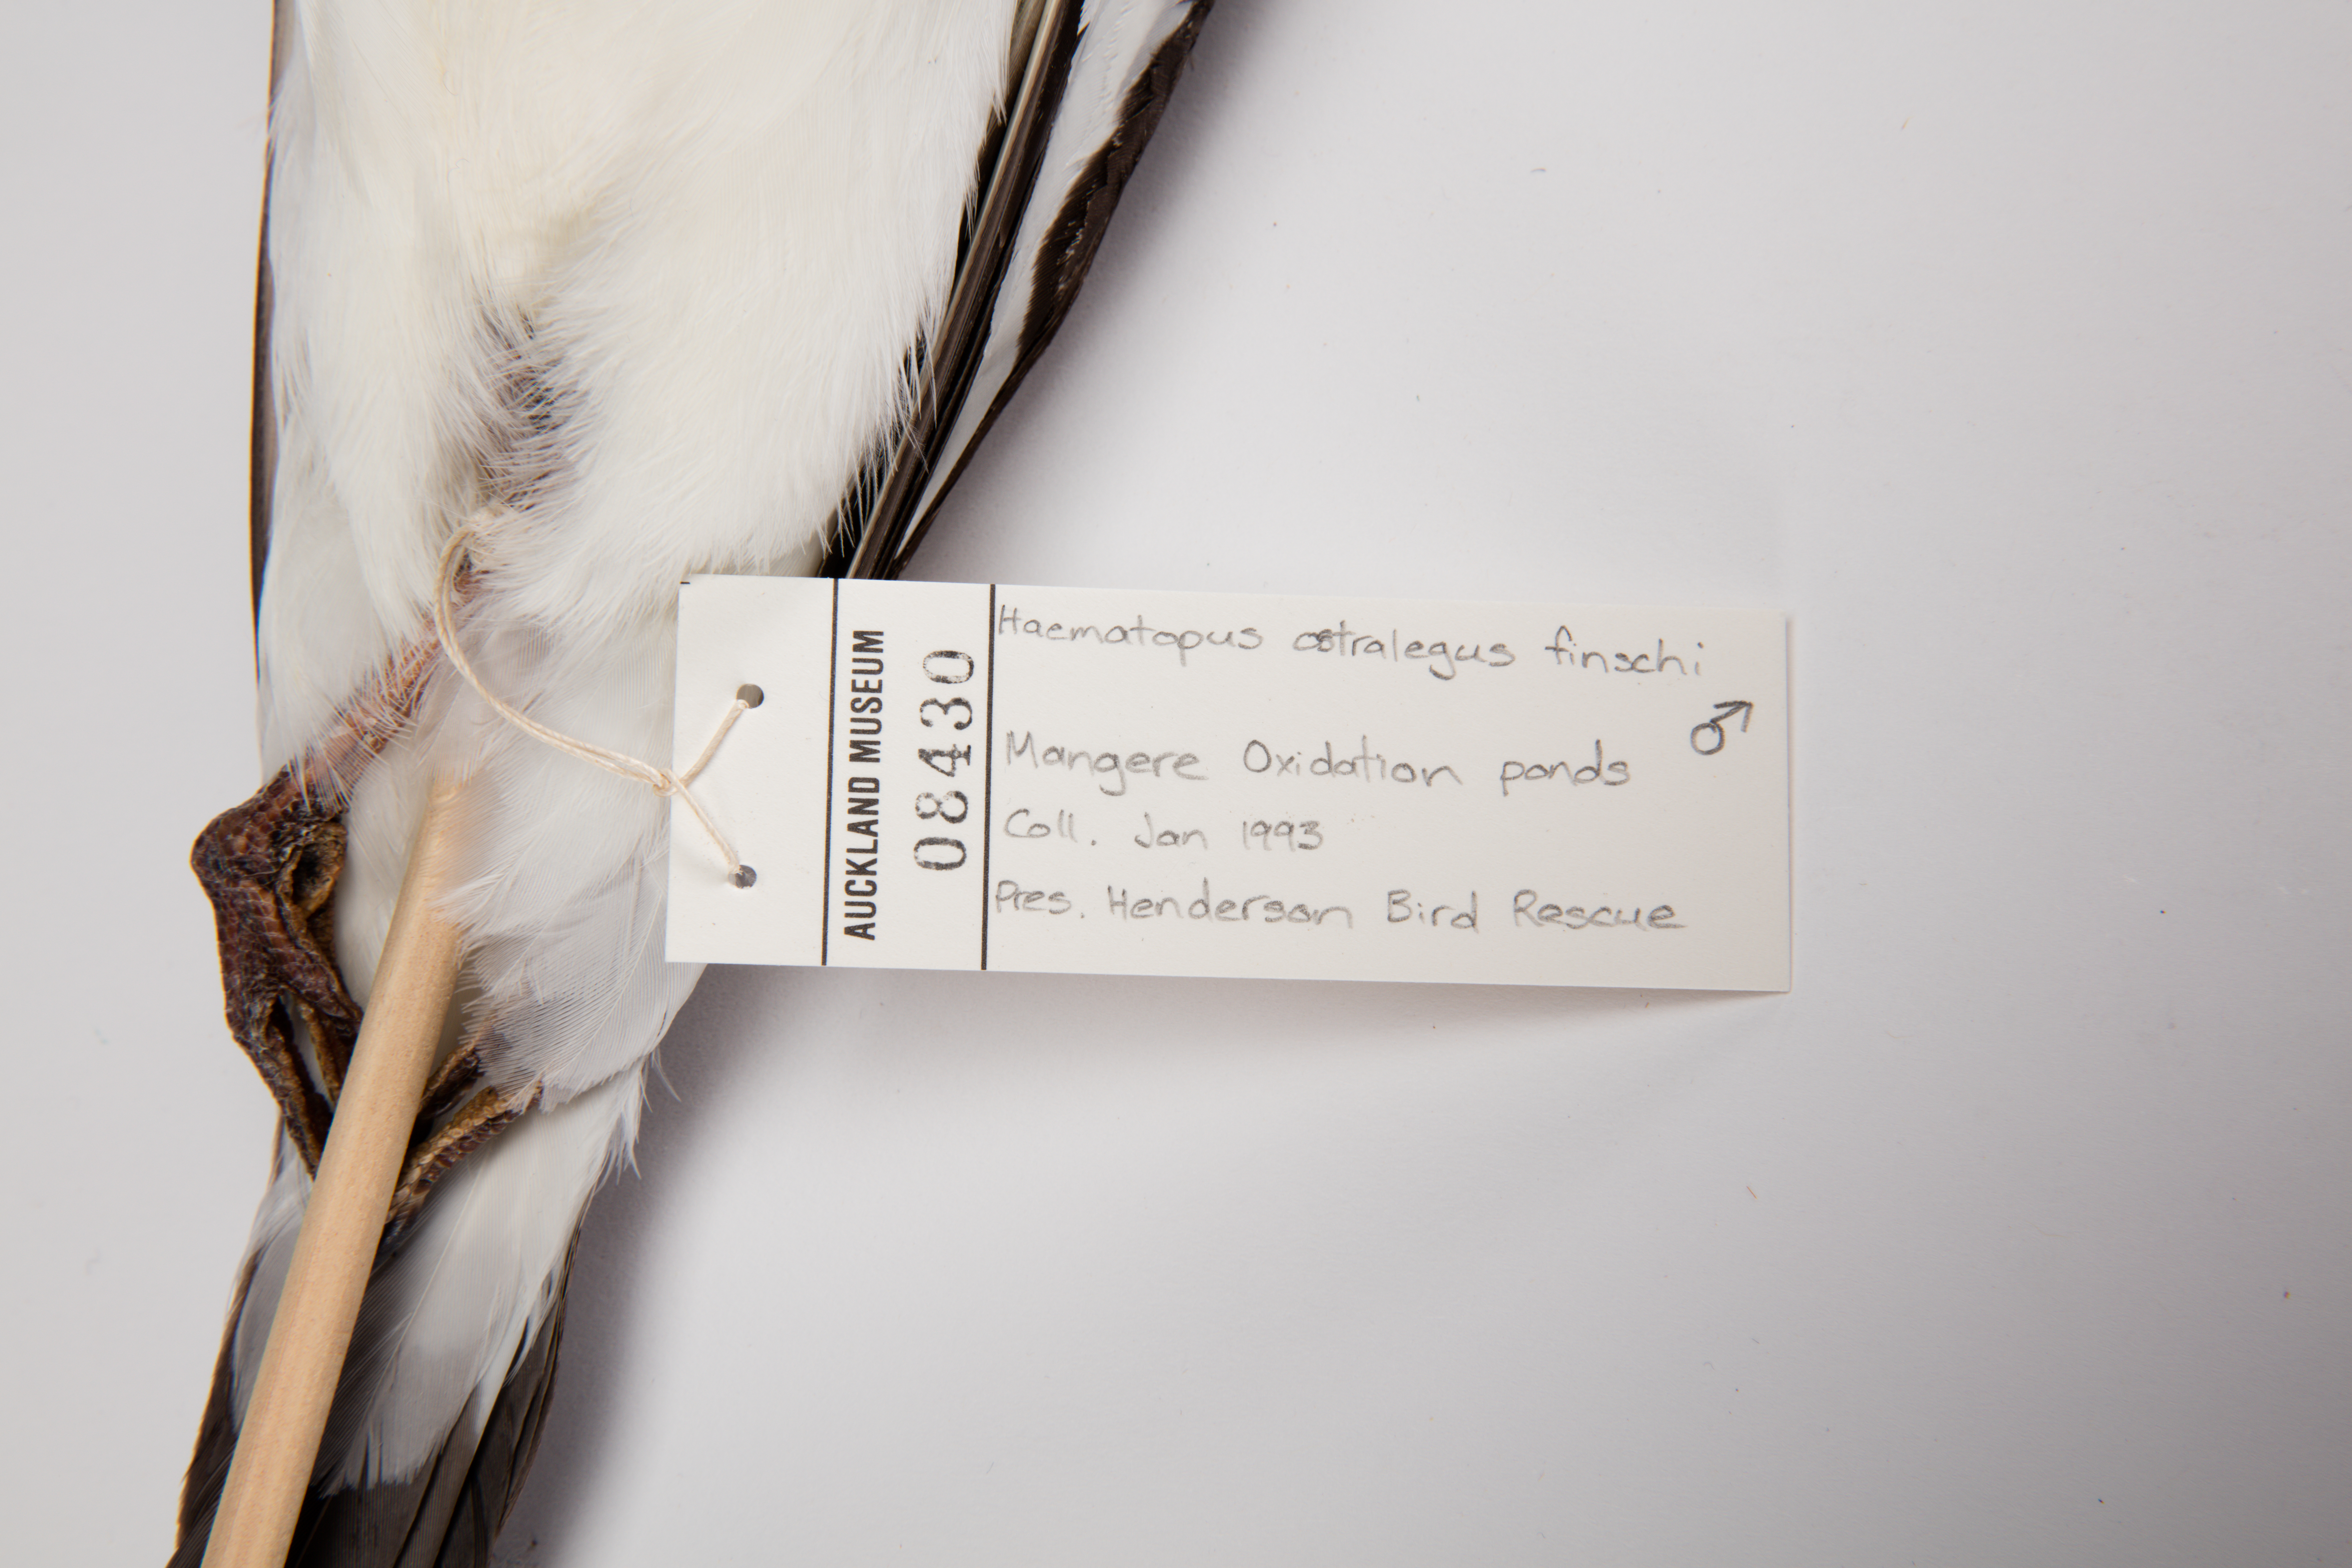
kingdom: Animalia
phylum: Chordata
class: Aves
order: Charadriiformes
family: Haematopodidae
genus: Haematopus
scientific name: Haematopus finschi
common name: South island oystercatcher
